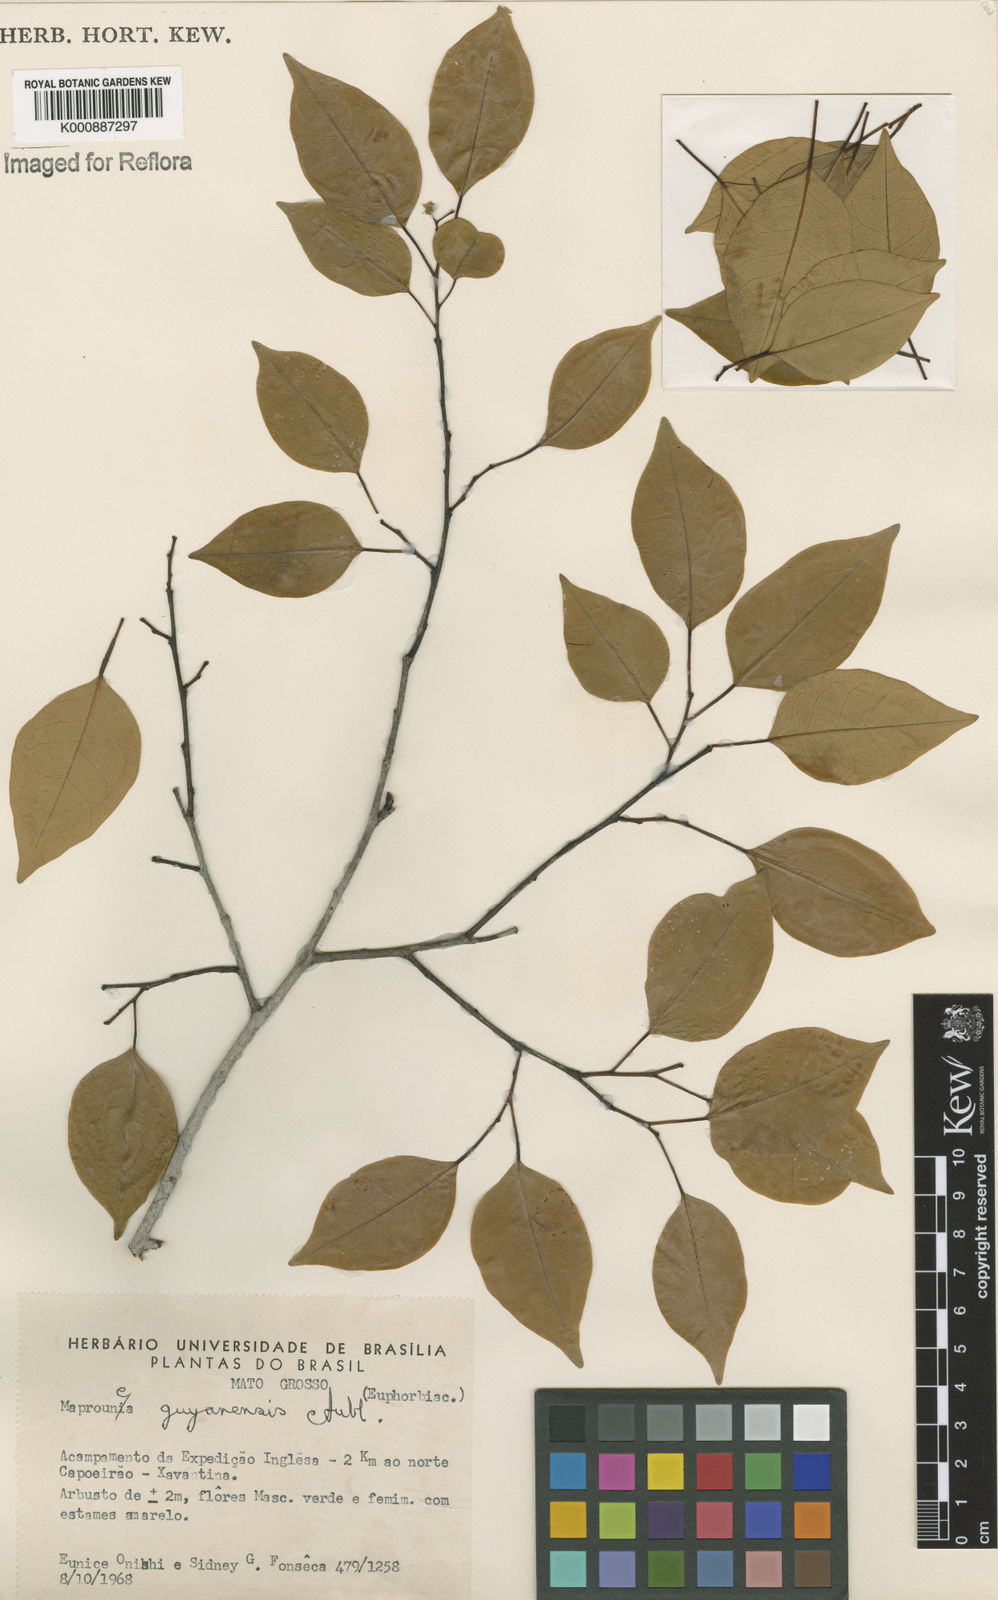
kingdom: Plantae
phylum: Tracheophyta
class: Magnoliopsida
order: Malpighiales
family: Euphorbiaceae
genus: Maprounea
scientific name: Maprounea guianensis
